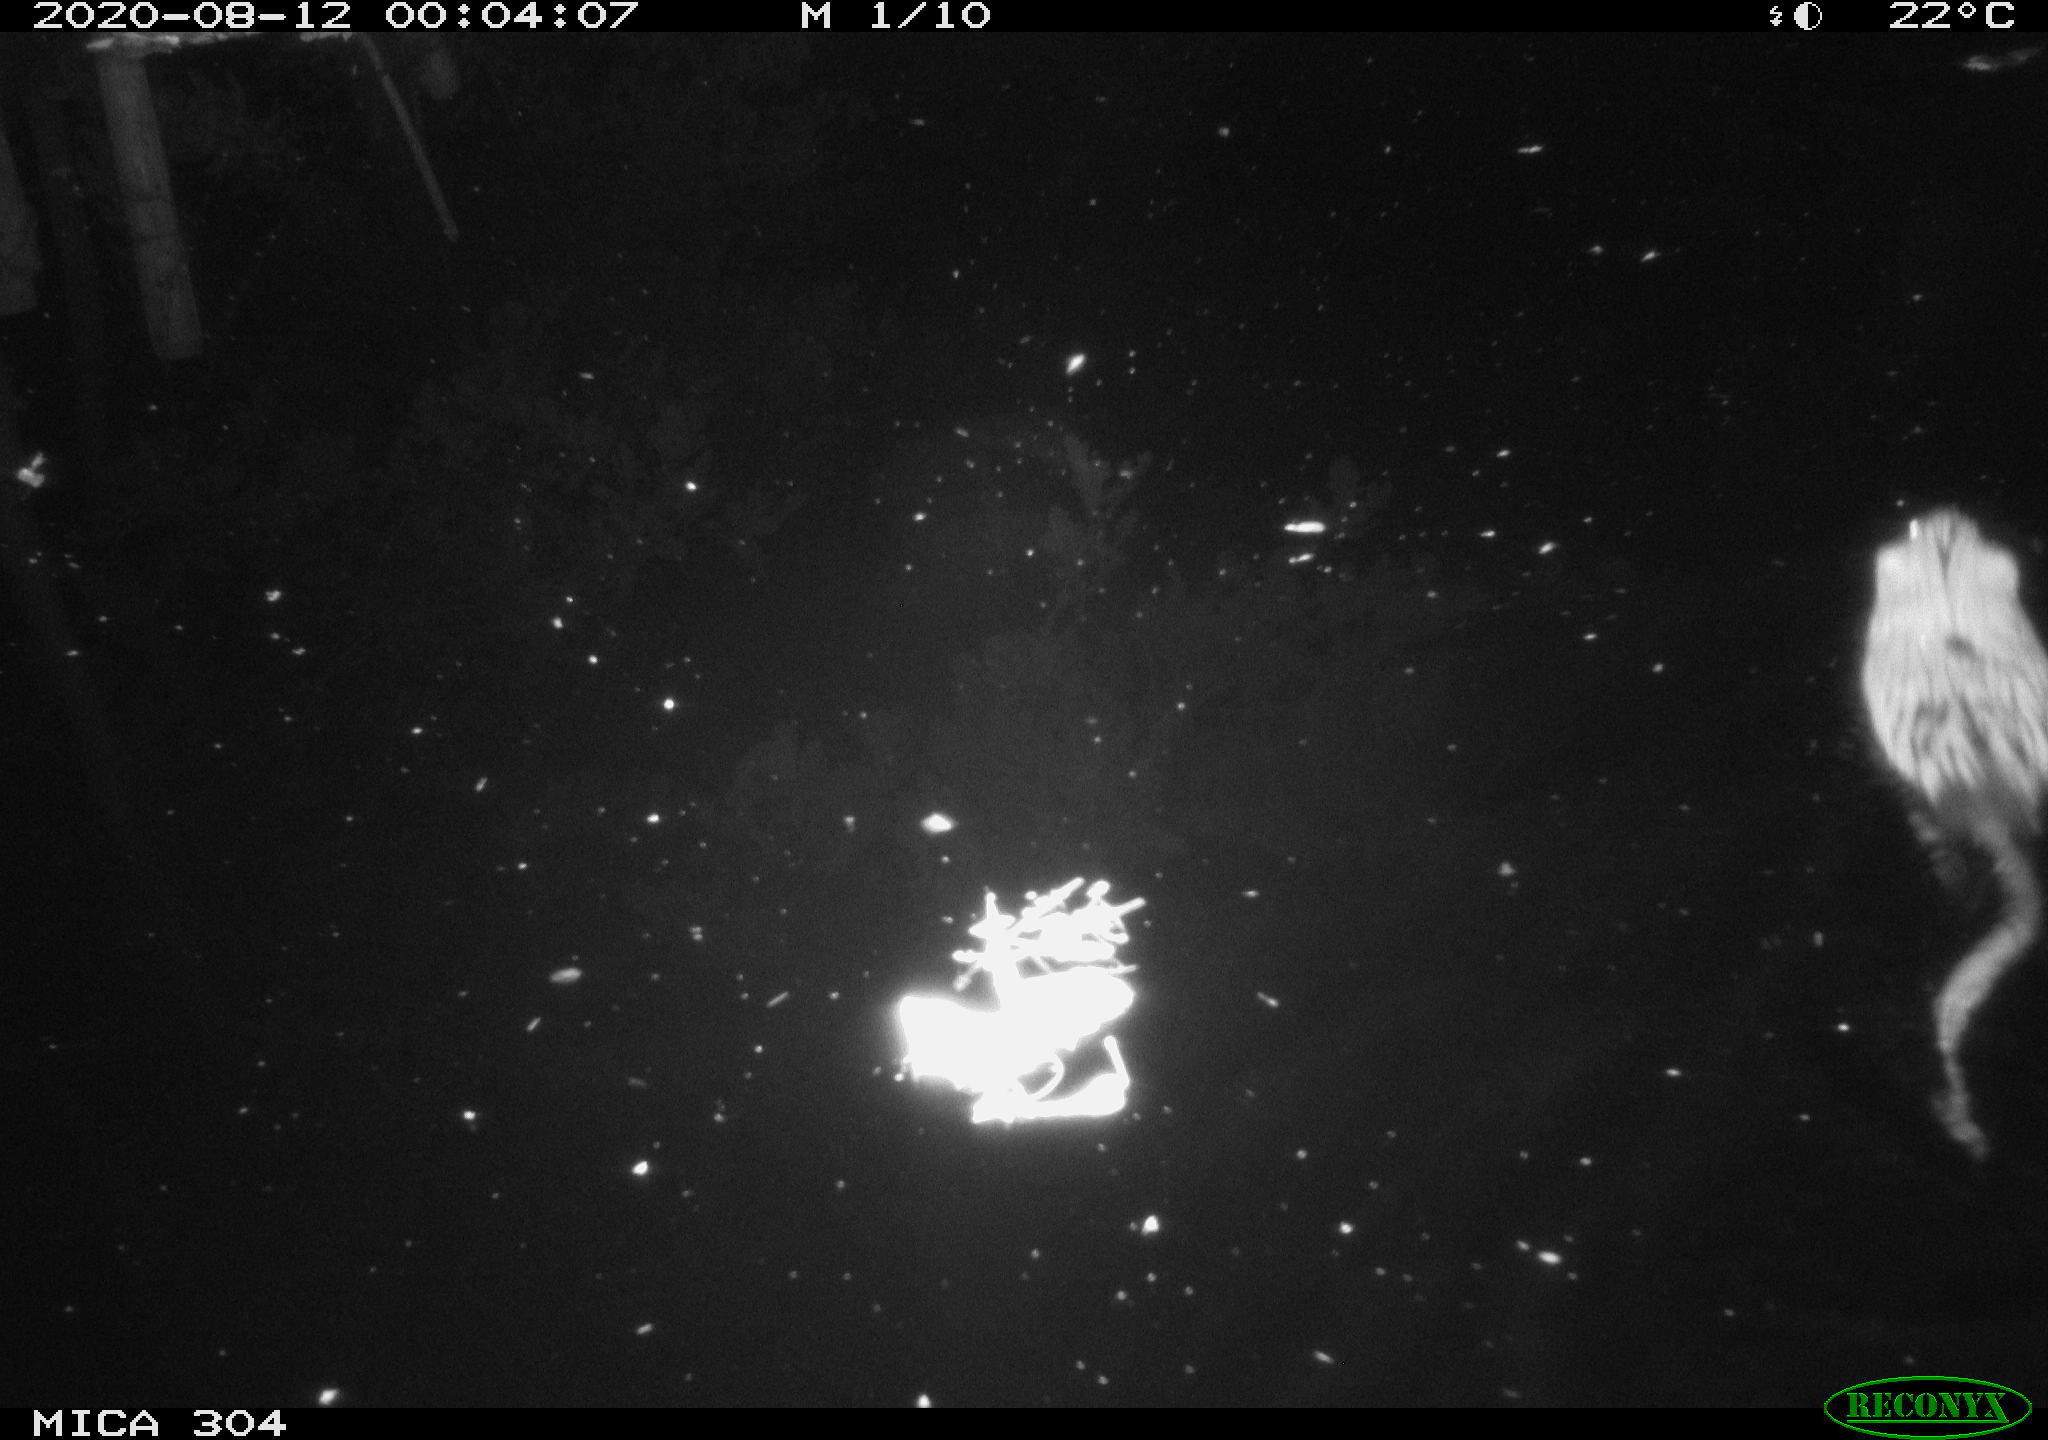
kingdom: Animalia
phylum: Chordata
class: Mammalia
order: Rodentia
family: Cricetidae
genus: Ondatra
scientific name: Ondatra zibethicus
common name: Muskrat
